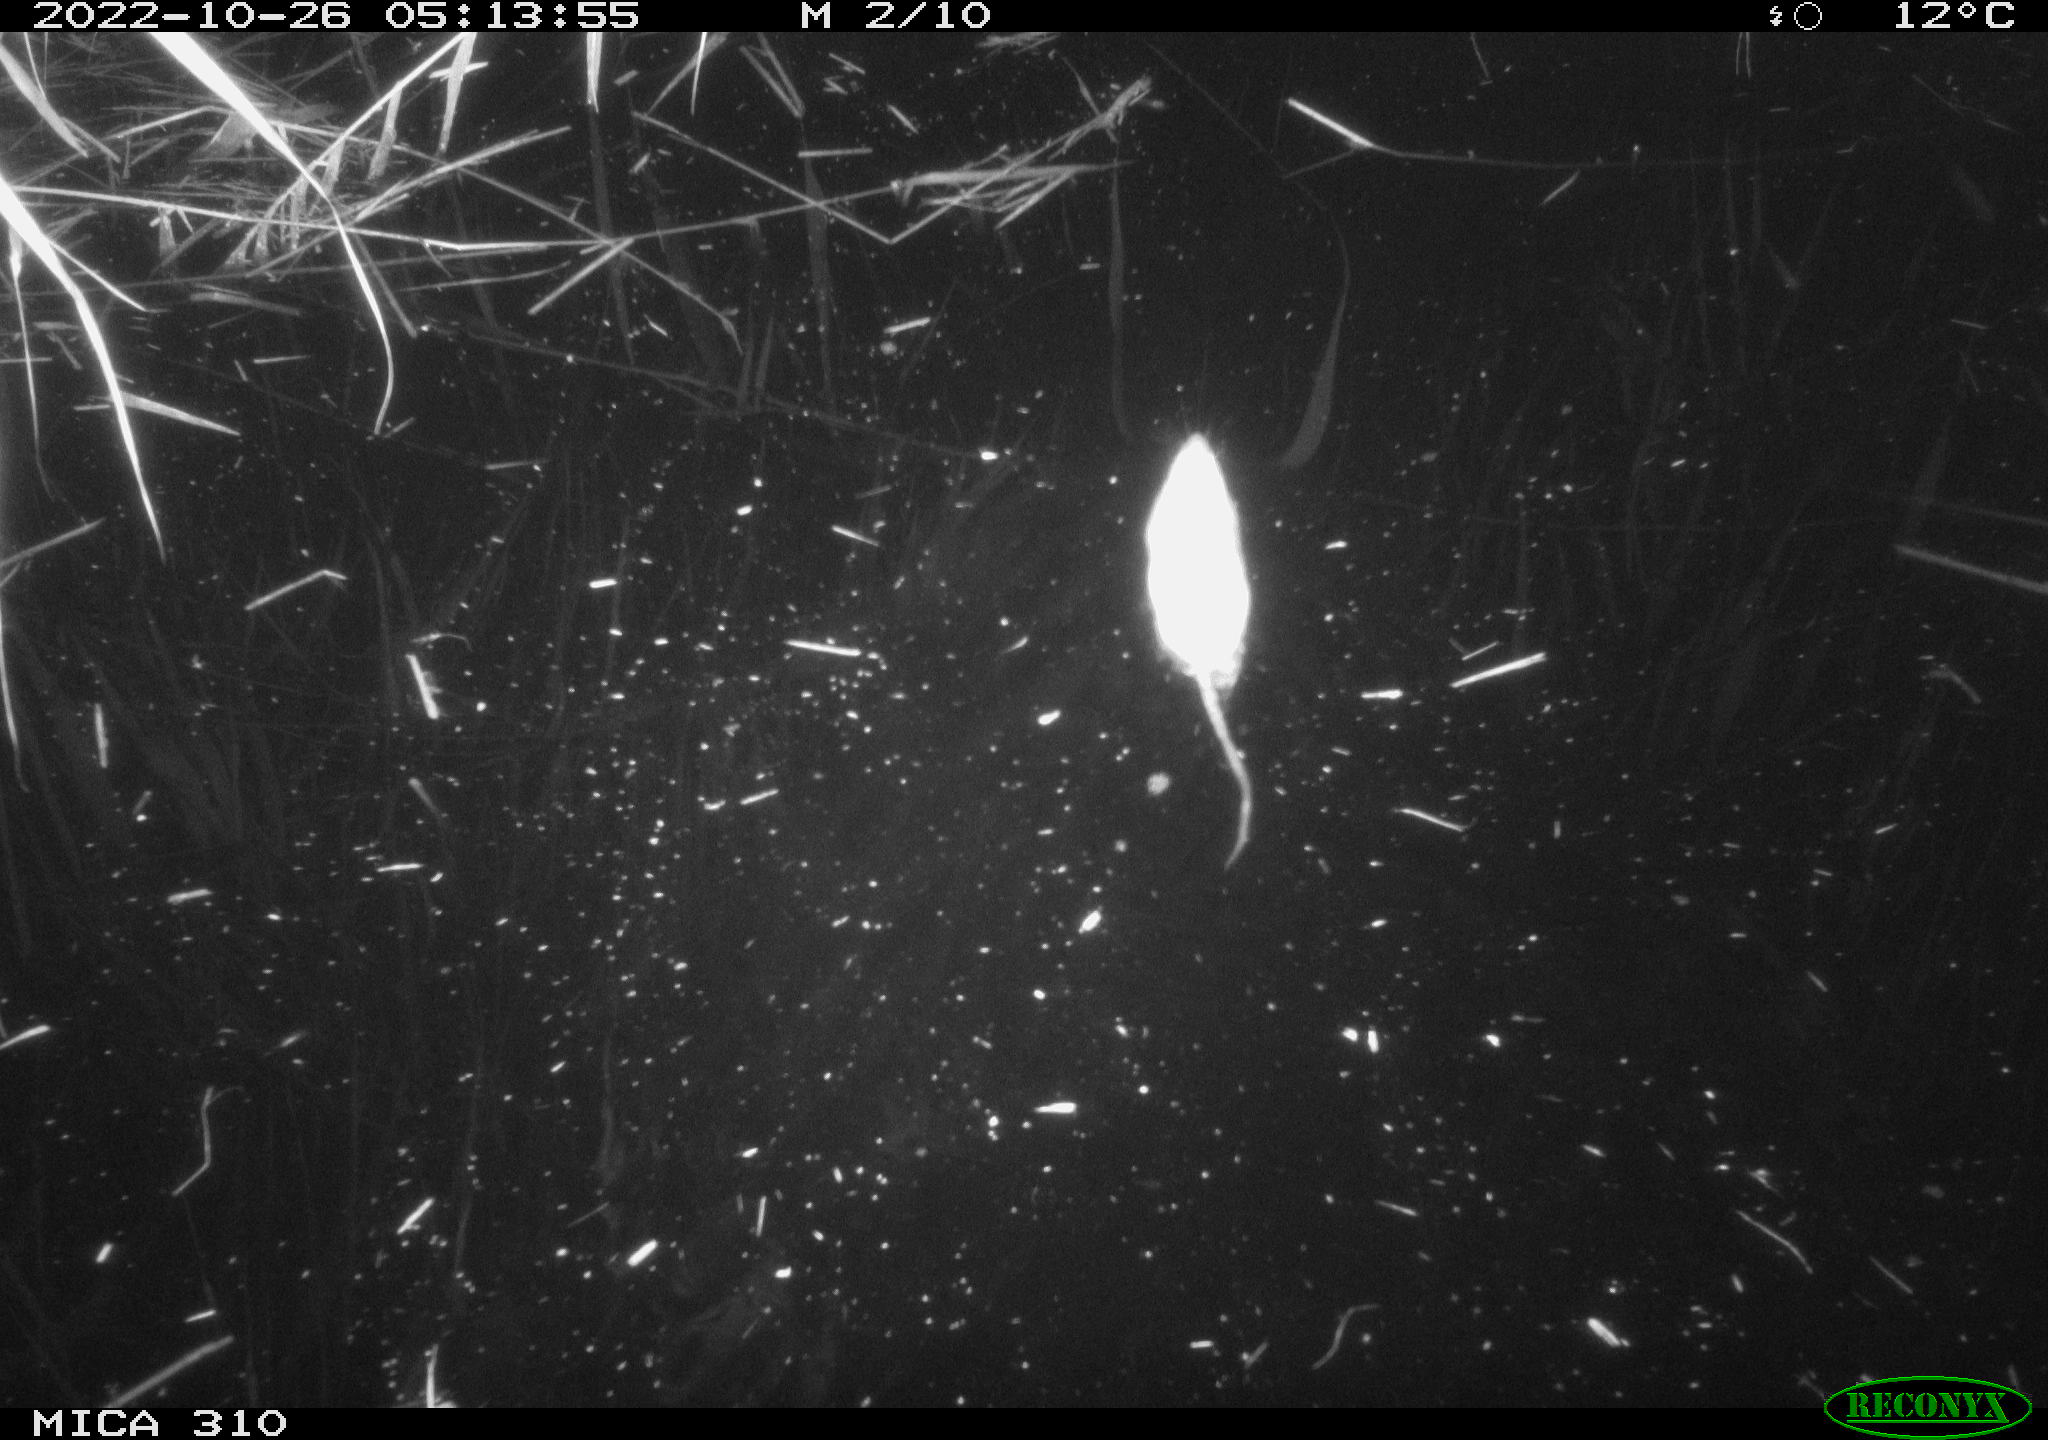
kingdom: Animalia
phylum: Chordata
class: Mammalia
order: Rodentia
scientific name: Rodentia
